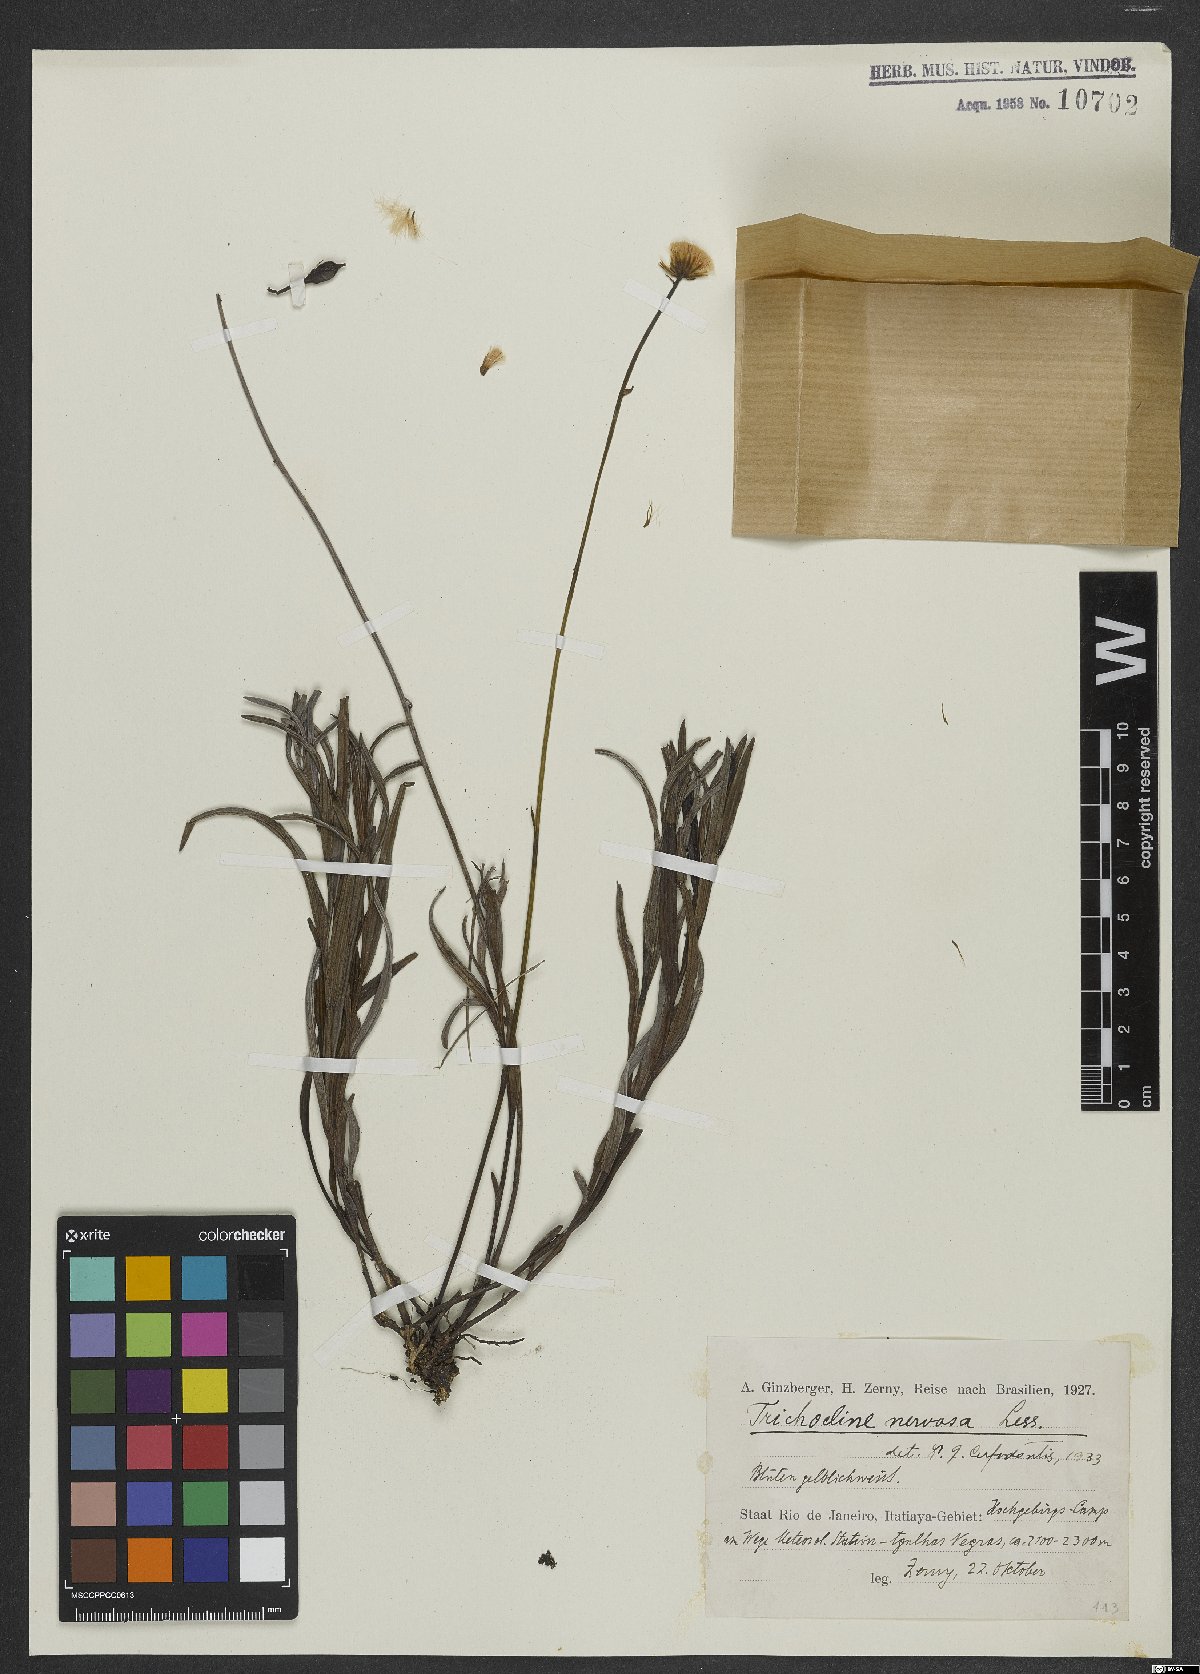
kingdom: Plantae
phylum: Tracheophyta
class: Magnoliopsida
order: Asterales
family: Asteraceae
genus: Lulia
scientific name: Lulia nervosa
